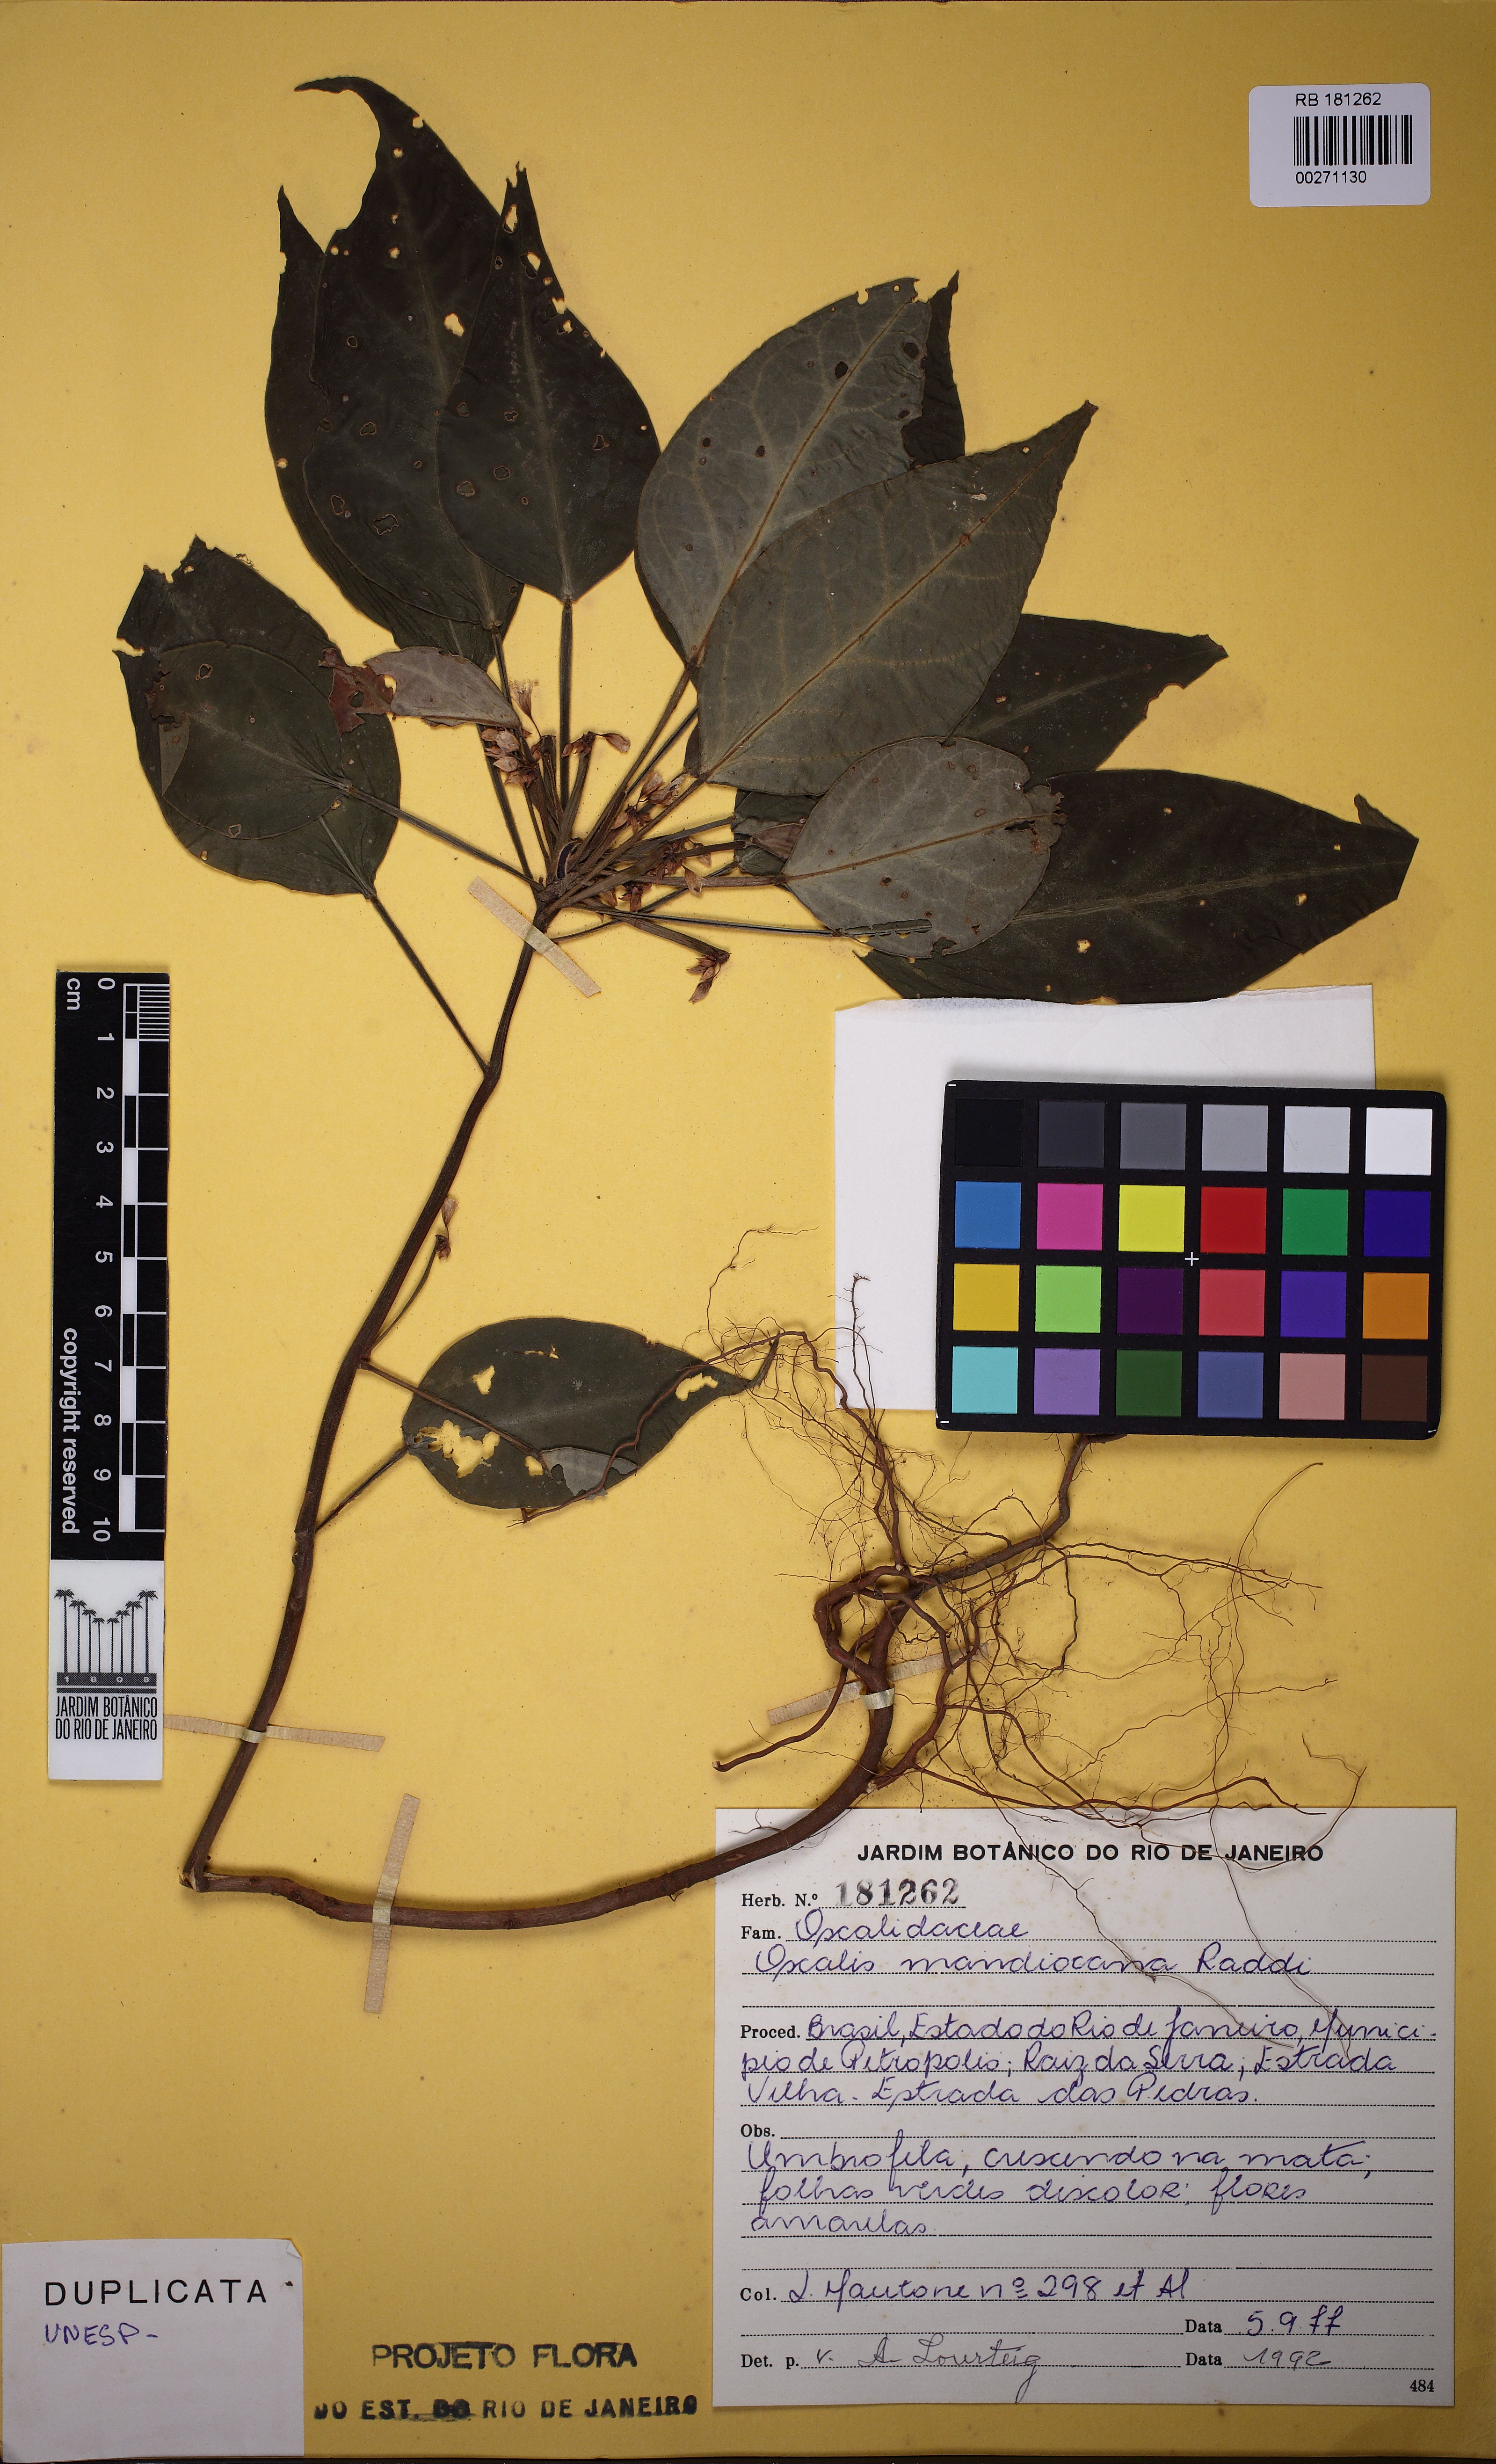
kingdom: Plantae
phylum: Tracheophyta
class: Magnoliopsida
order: Oxalidales
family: Oxalidaceae
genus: Oxalis
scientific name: Oxalis mandioccana
